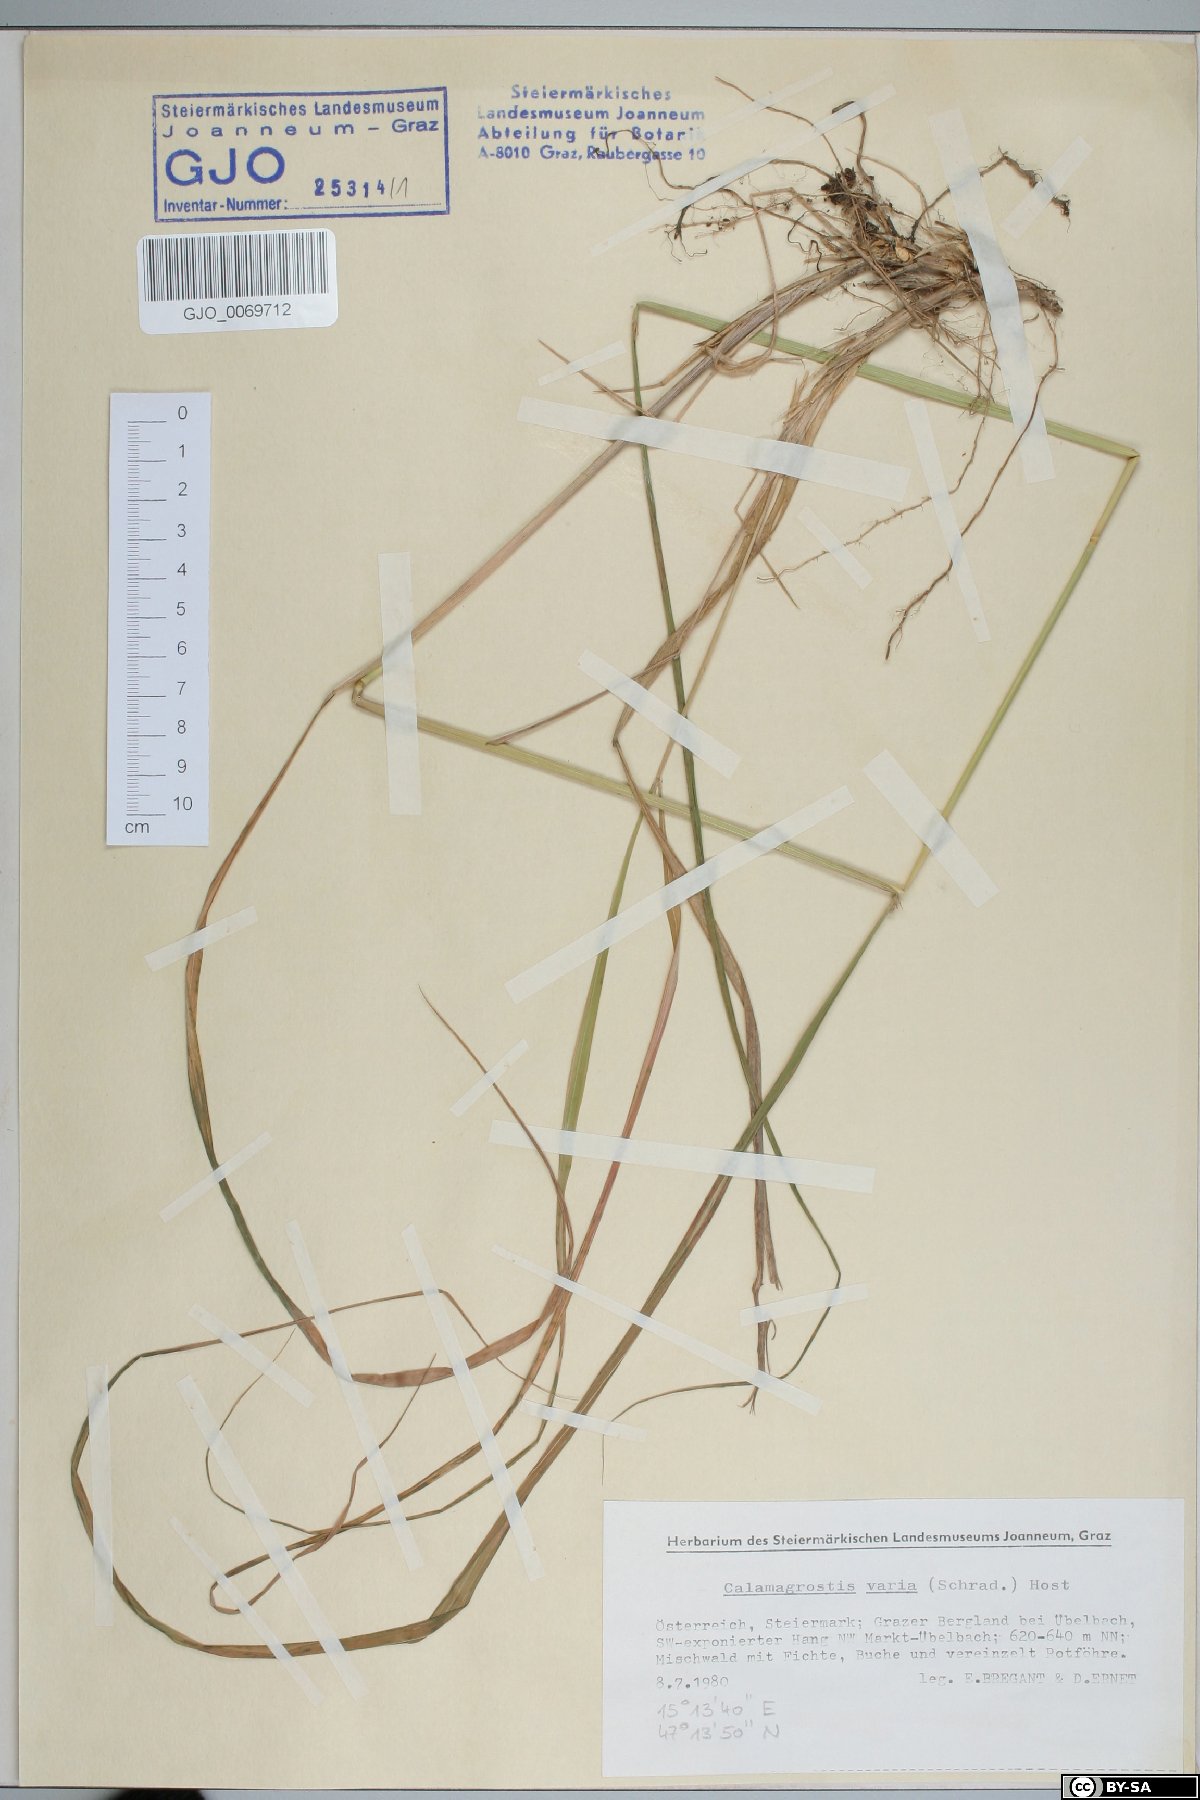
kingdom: Plantae
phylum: Tracheophyta
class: Liliopsida
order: Poales
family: Poaceae
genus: Calamagrostis
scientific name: Calamagrostis varia
